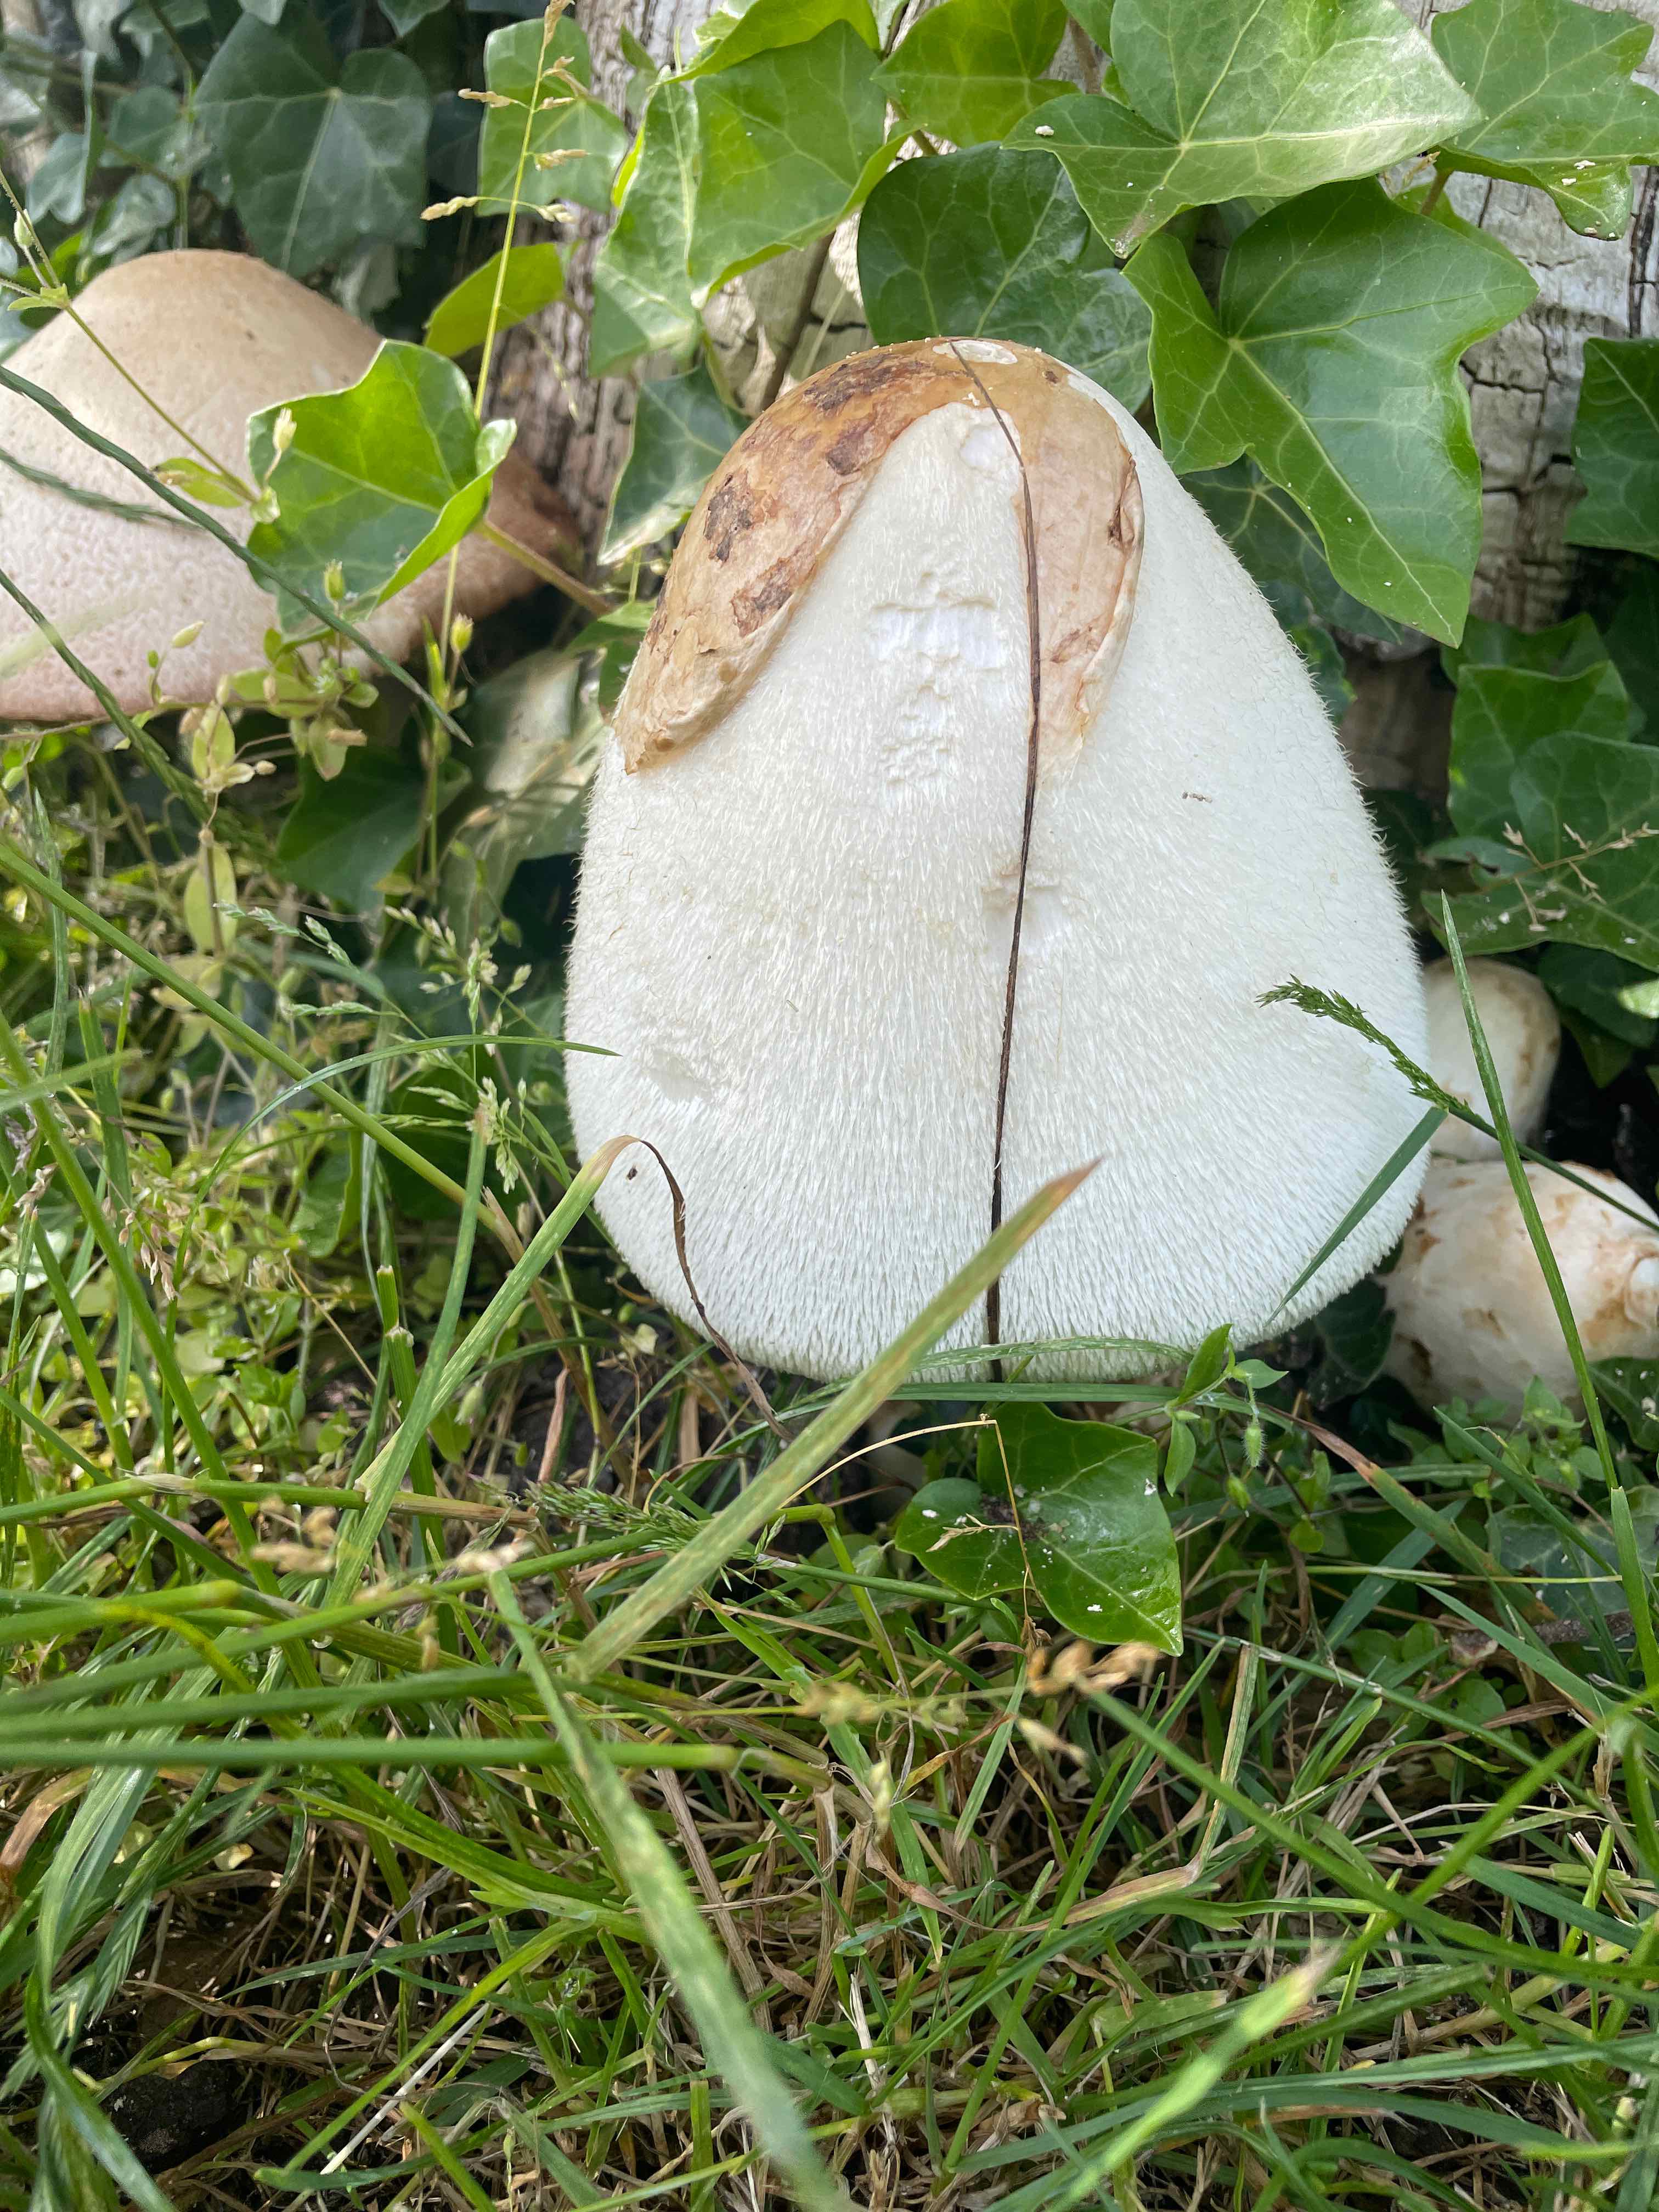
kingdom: Fungi
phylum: Basidiomycota
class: Agaricomycetes
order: Agaricales
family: Pluteaceae
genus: Volvariella
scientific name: Volvariella bombycina
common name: silkehåret posesvamp
